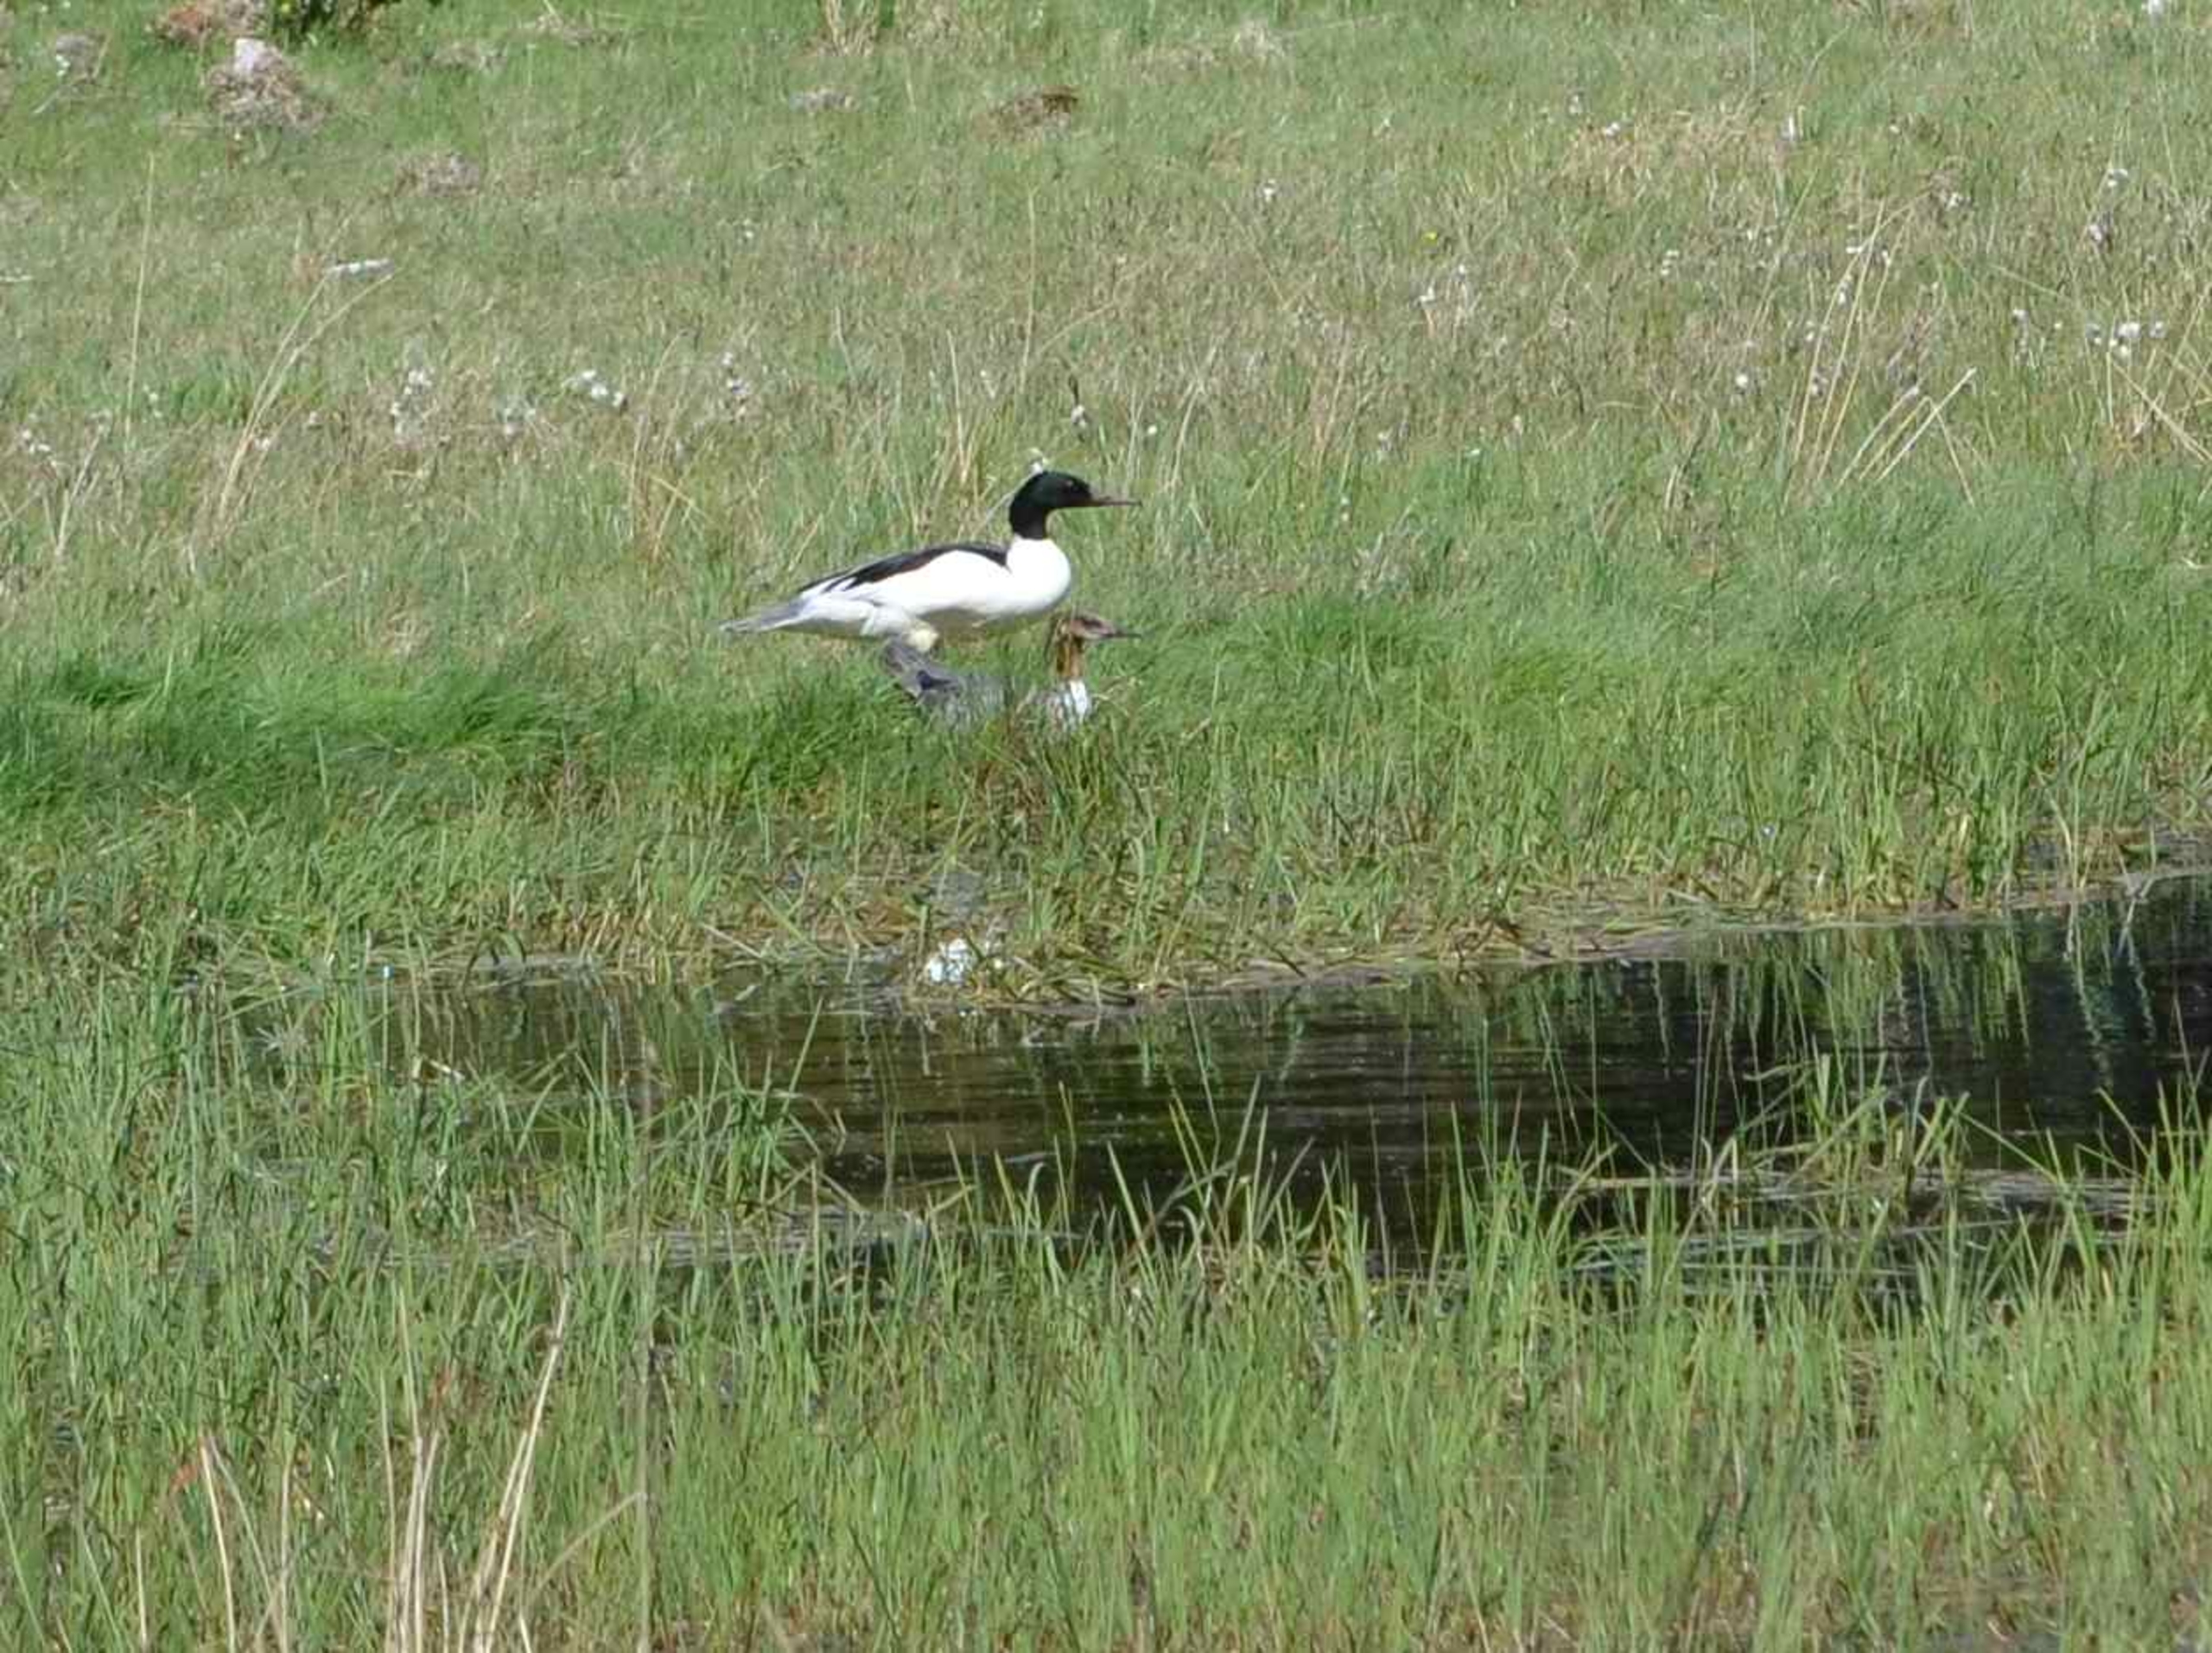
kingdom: Animalia
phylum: Chordata
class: Aves
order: Anseriformes
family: Anatidae
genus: Mergus
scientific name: Mergus merganser
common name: Stor skallesluger
